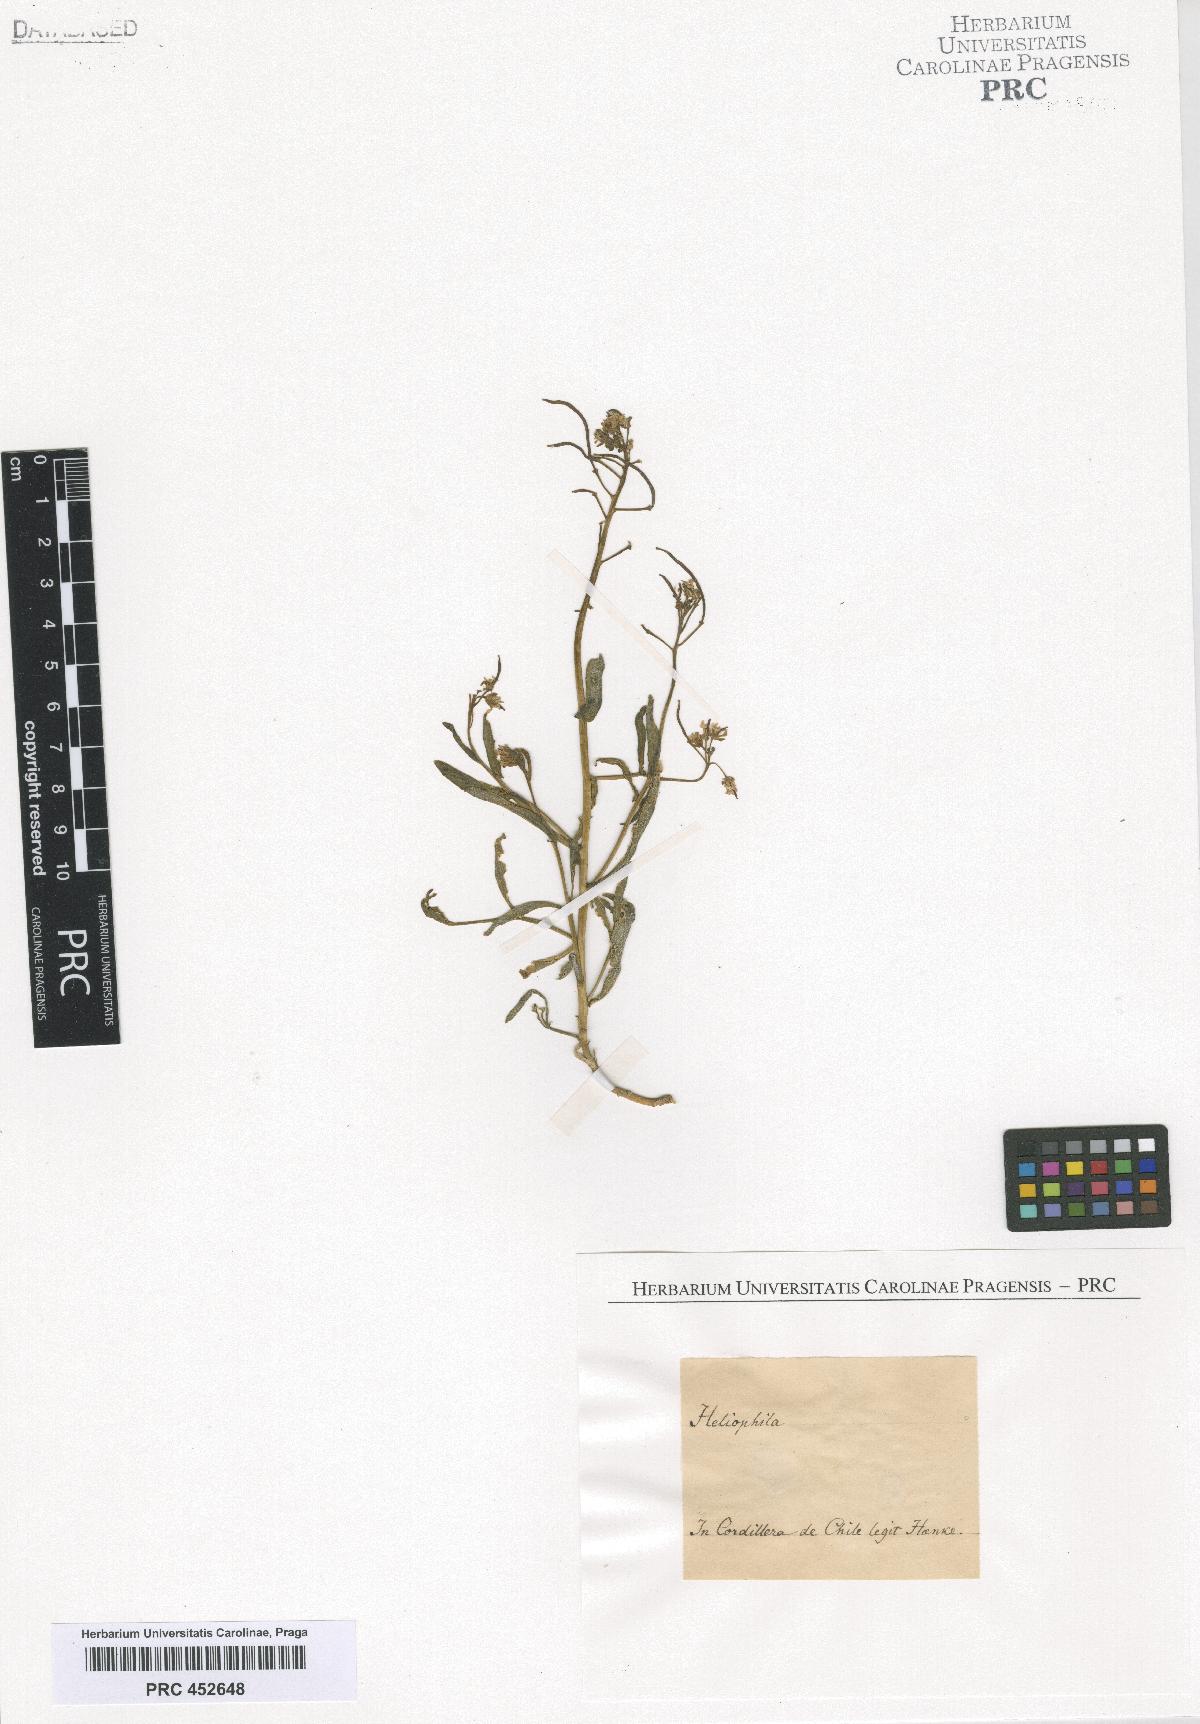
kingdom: Plantae
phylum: Tracheophyta
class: Magnoliopsida
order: Brassicales
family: Brassicaceae
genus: Heliophila
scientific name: Heliophila
